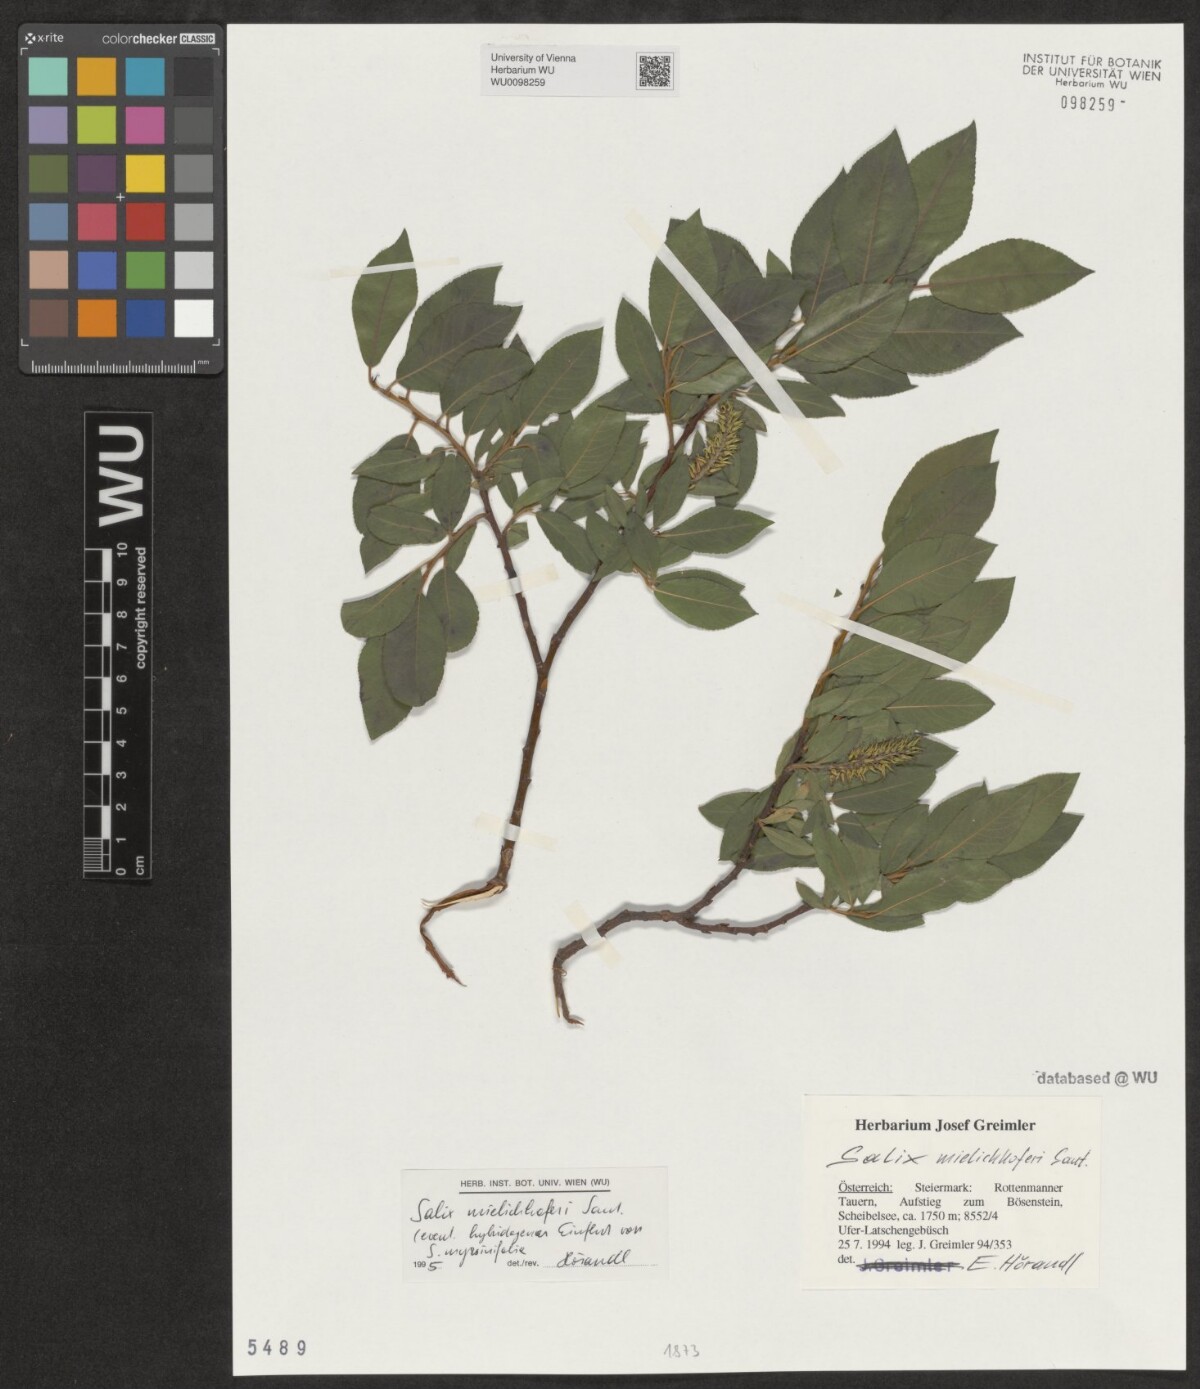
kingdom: Plantae
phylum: Tracheophyta
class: Magnoliopsida
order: Malpighiales
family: Salicaceae
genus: Salix
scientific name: Salix mielichhoferi
